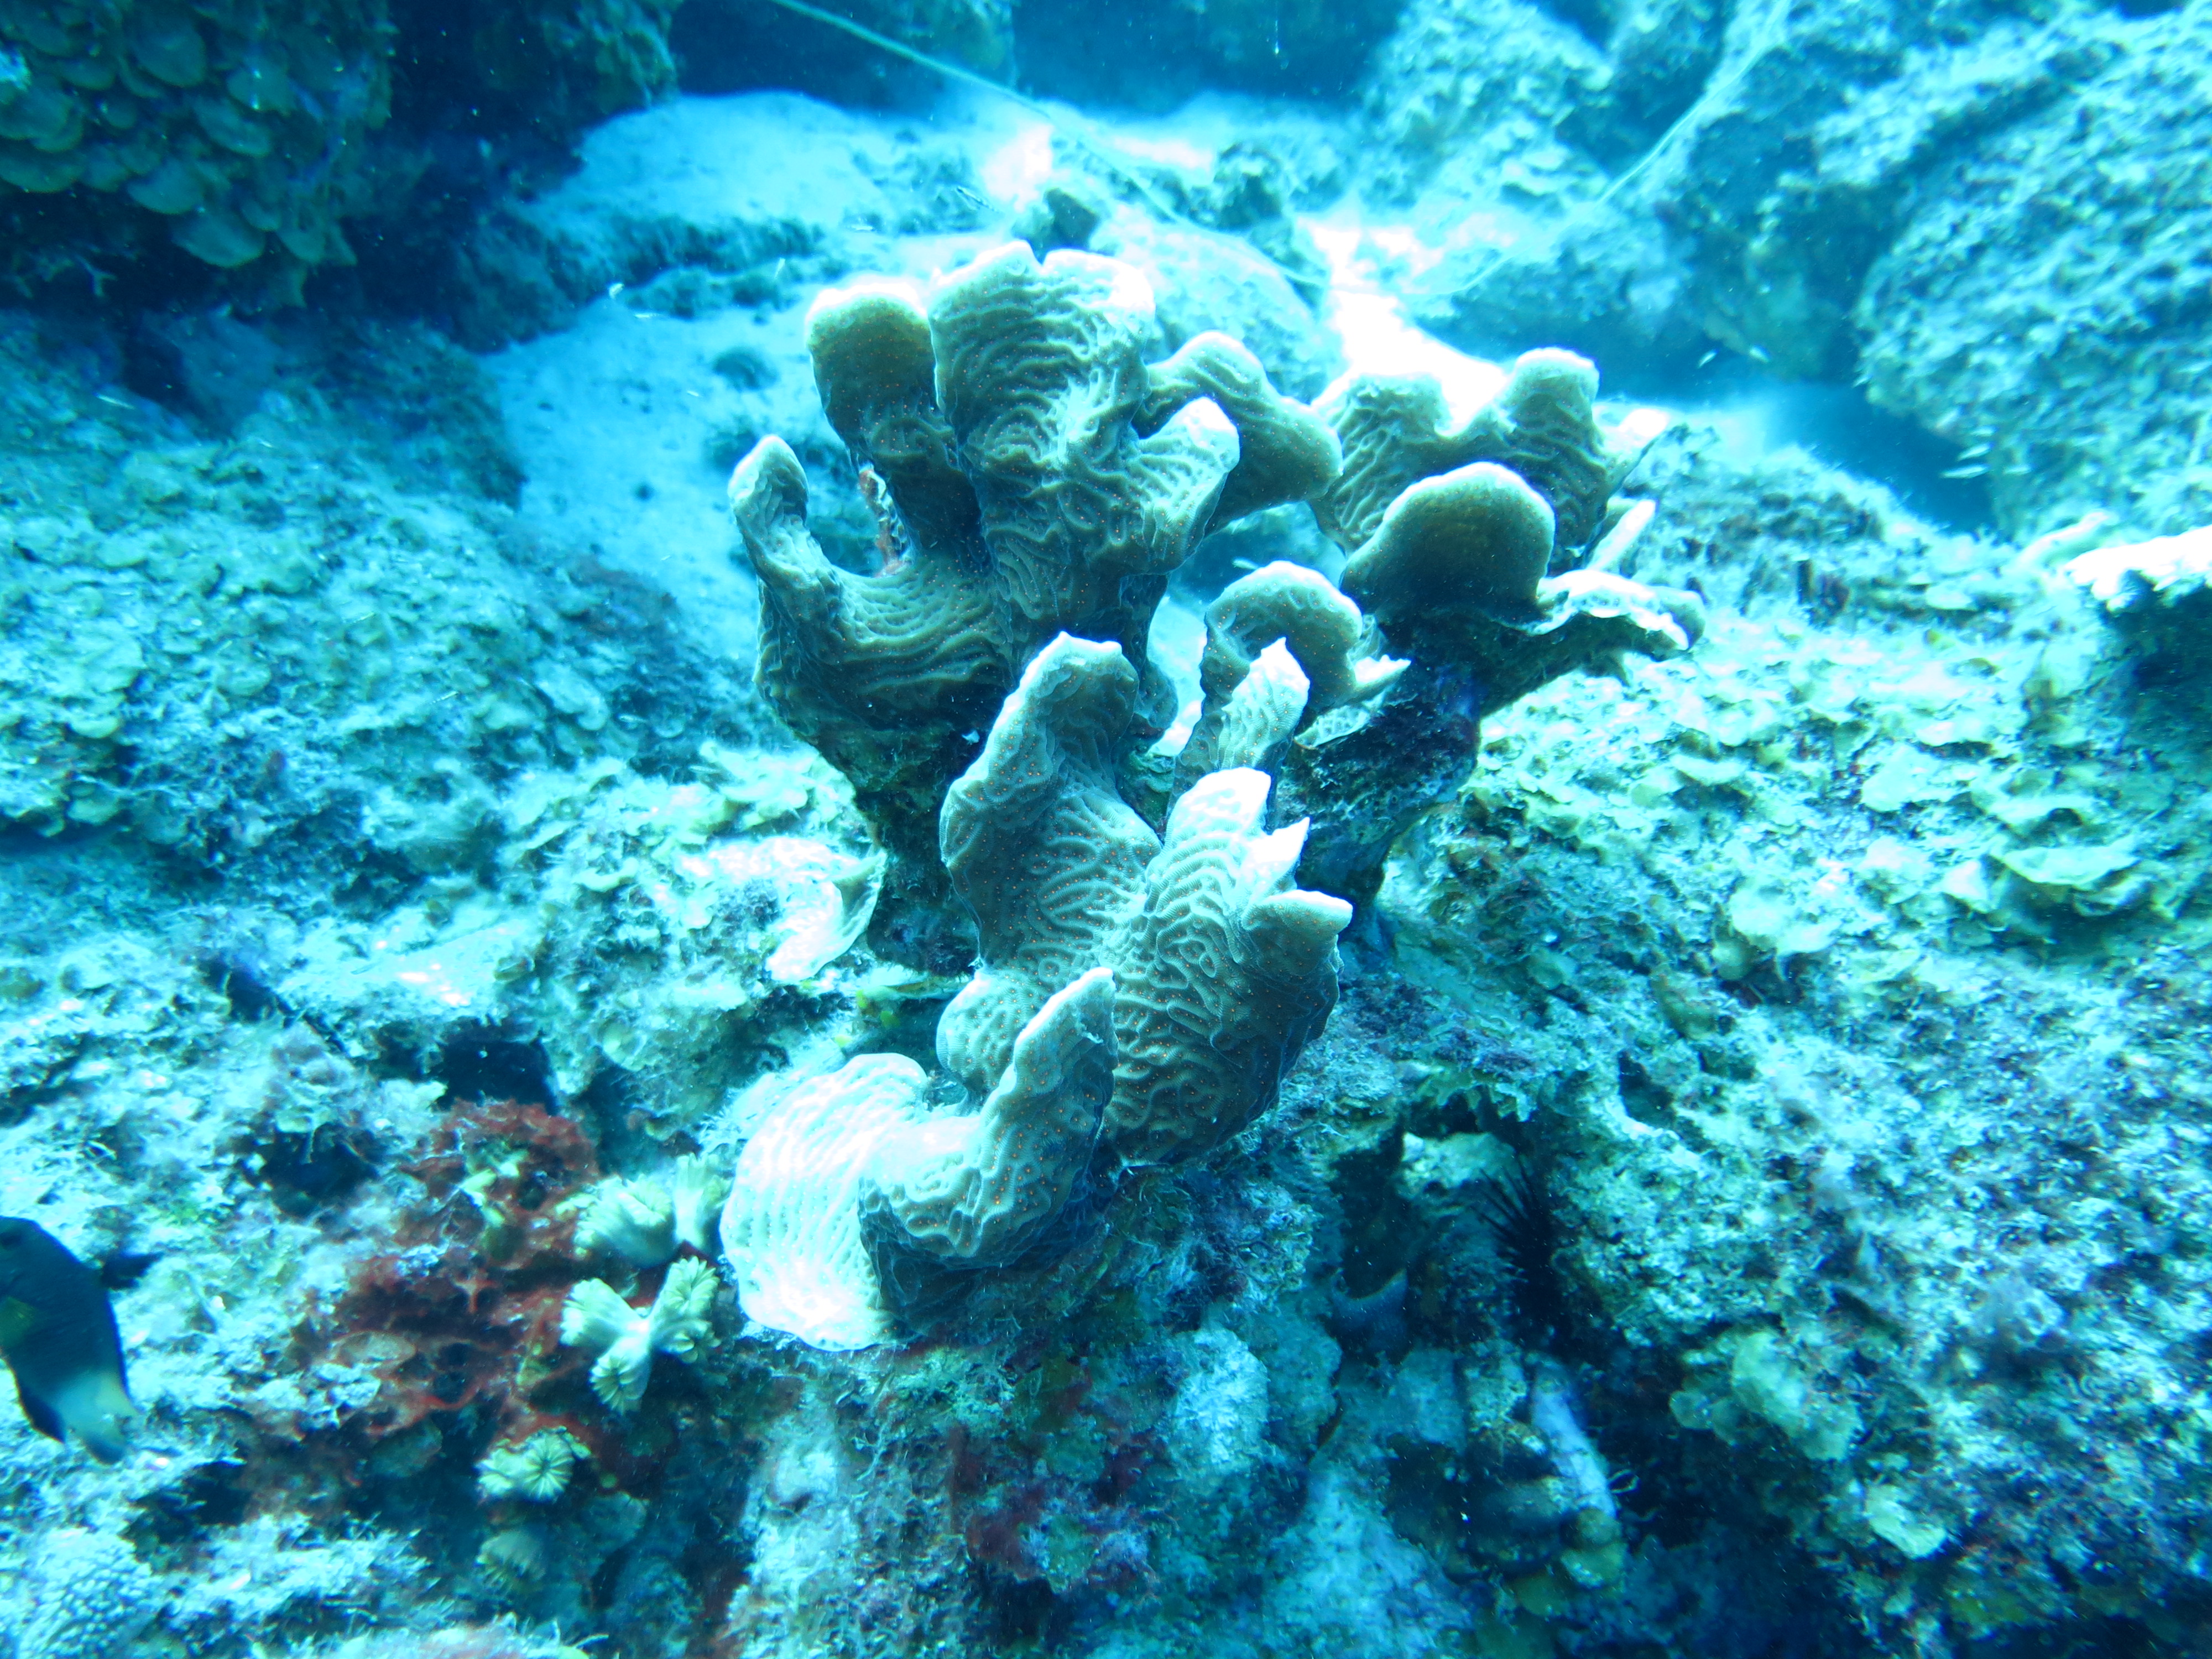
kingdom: Animalia
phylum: Cnidaria
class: Anthozoa
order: Scleractinia
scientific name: Scleractinia
